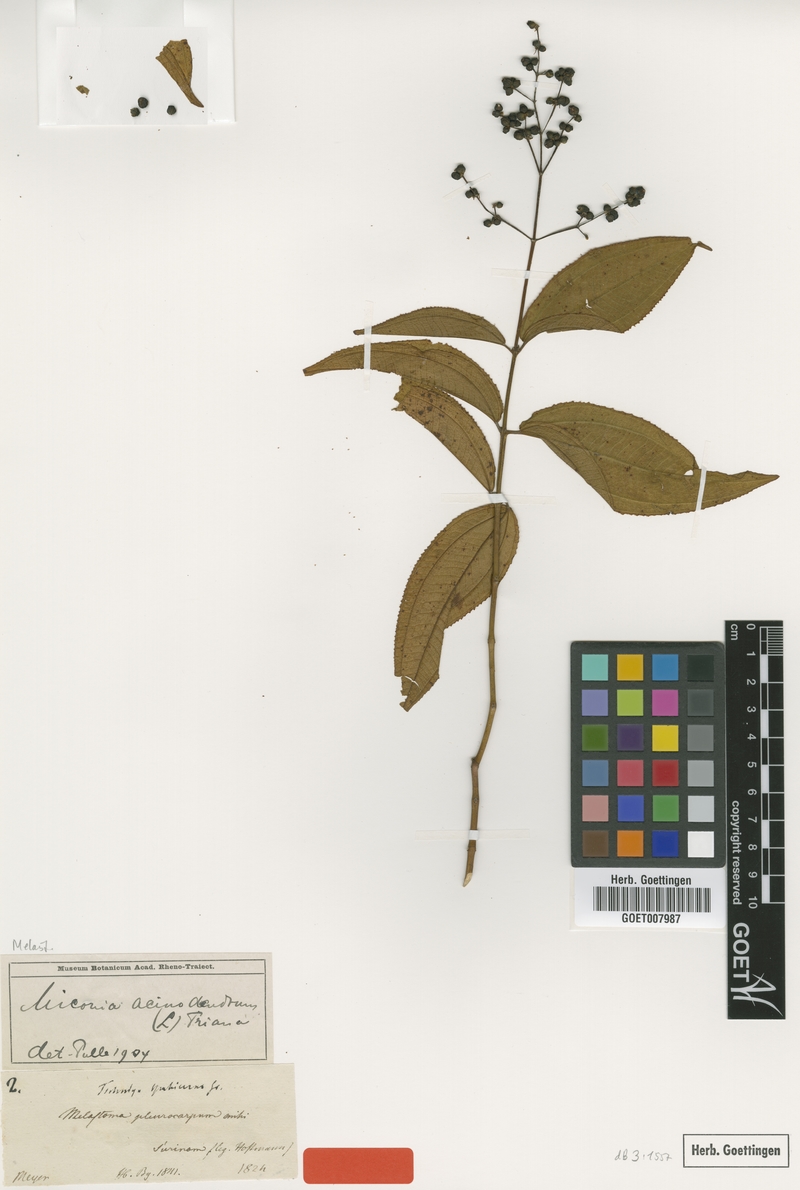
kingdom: Plantae
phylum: Tracheophyta
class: Magnoliopsida
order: Myrtales
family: Melastomataceae
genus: Miconia
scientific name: Miconia acinodendron
